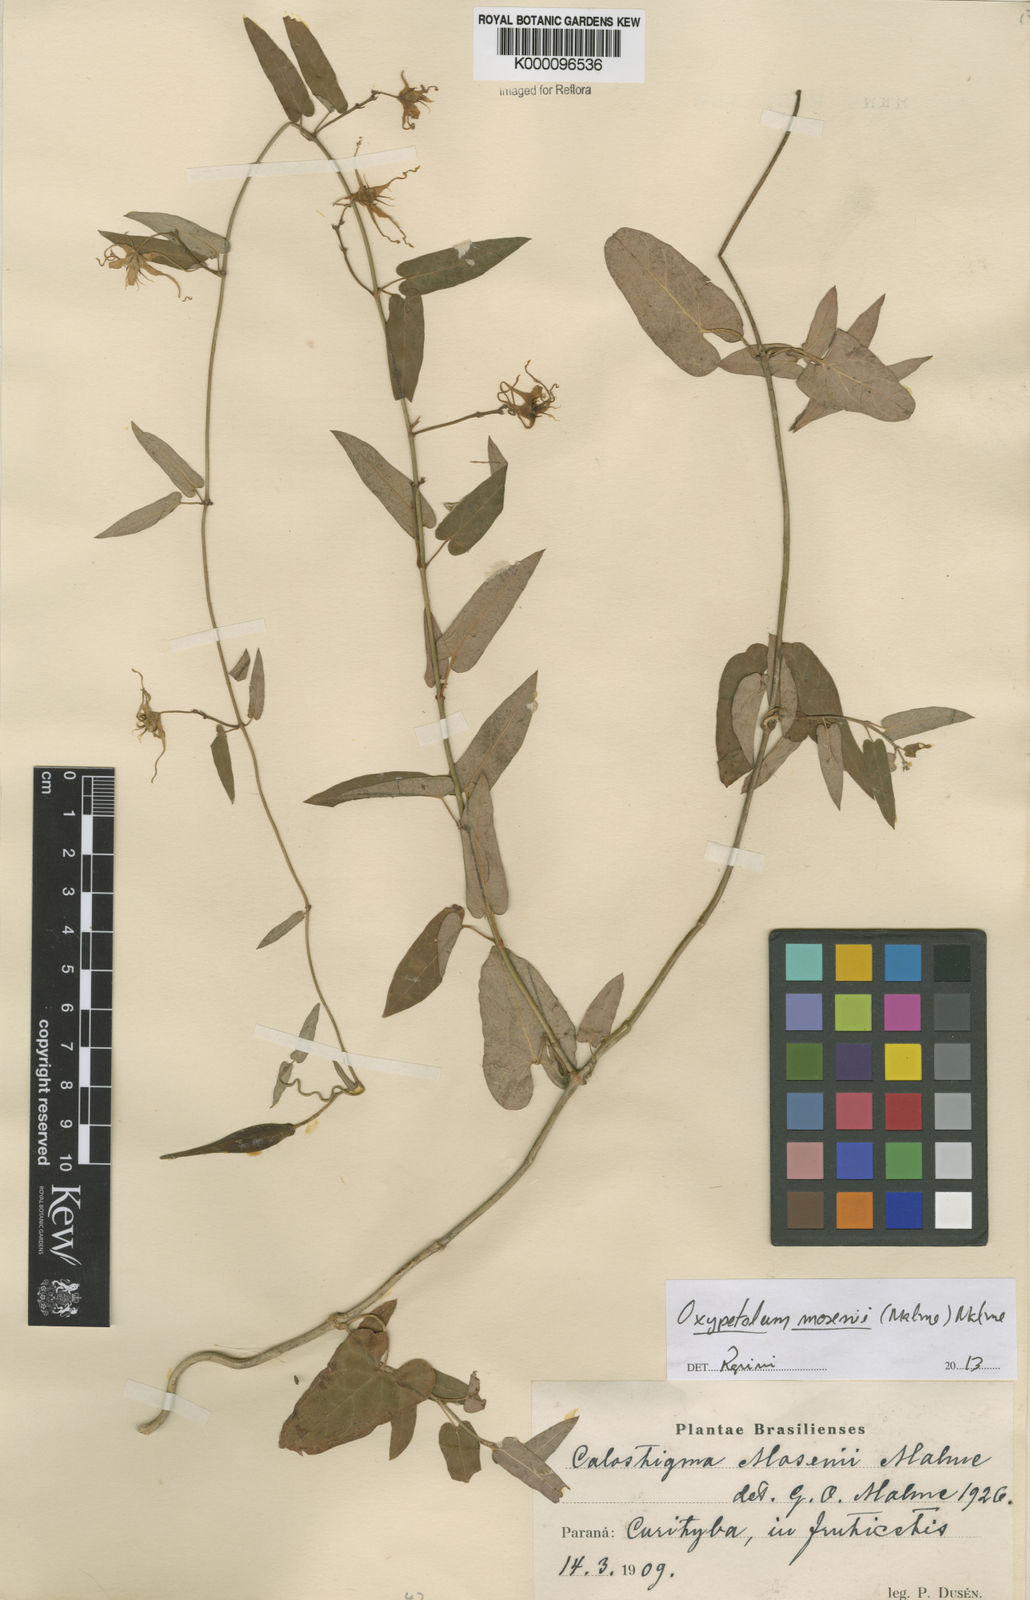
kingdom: Plantae
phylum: Tracheophyta
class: Magnoliopsida
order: Gentianales
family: Apocynaceae
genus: Oxypetalum
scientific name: Oxypetalum mosenii
